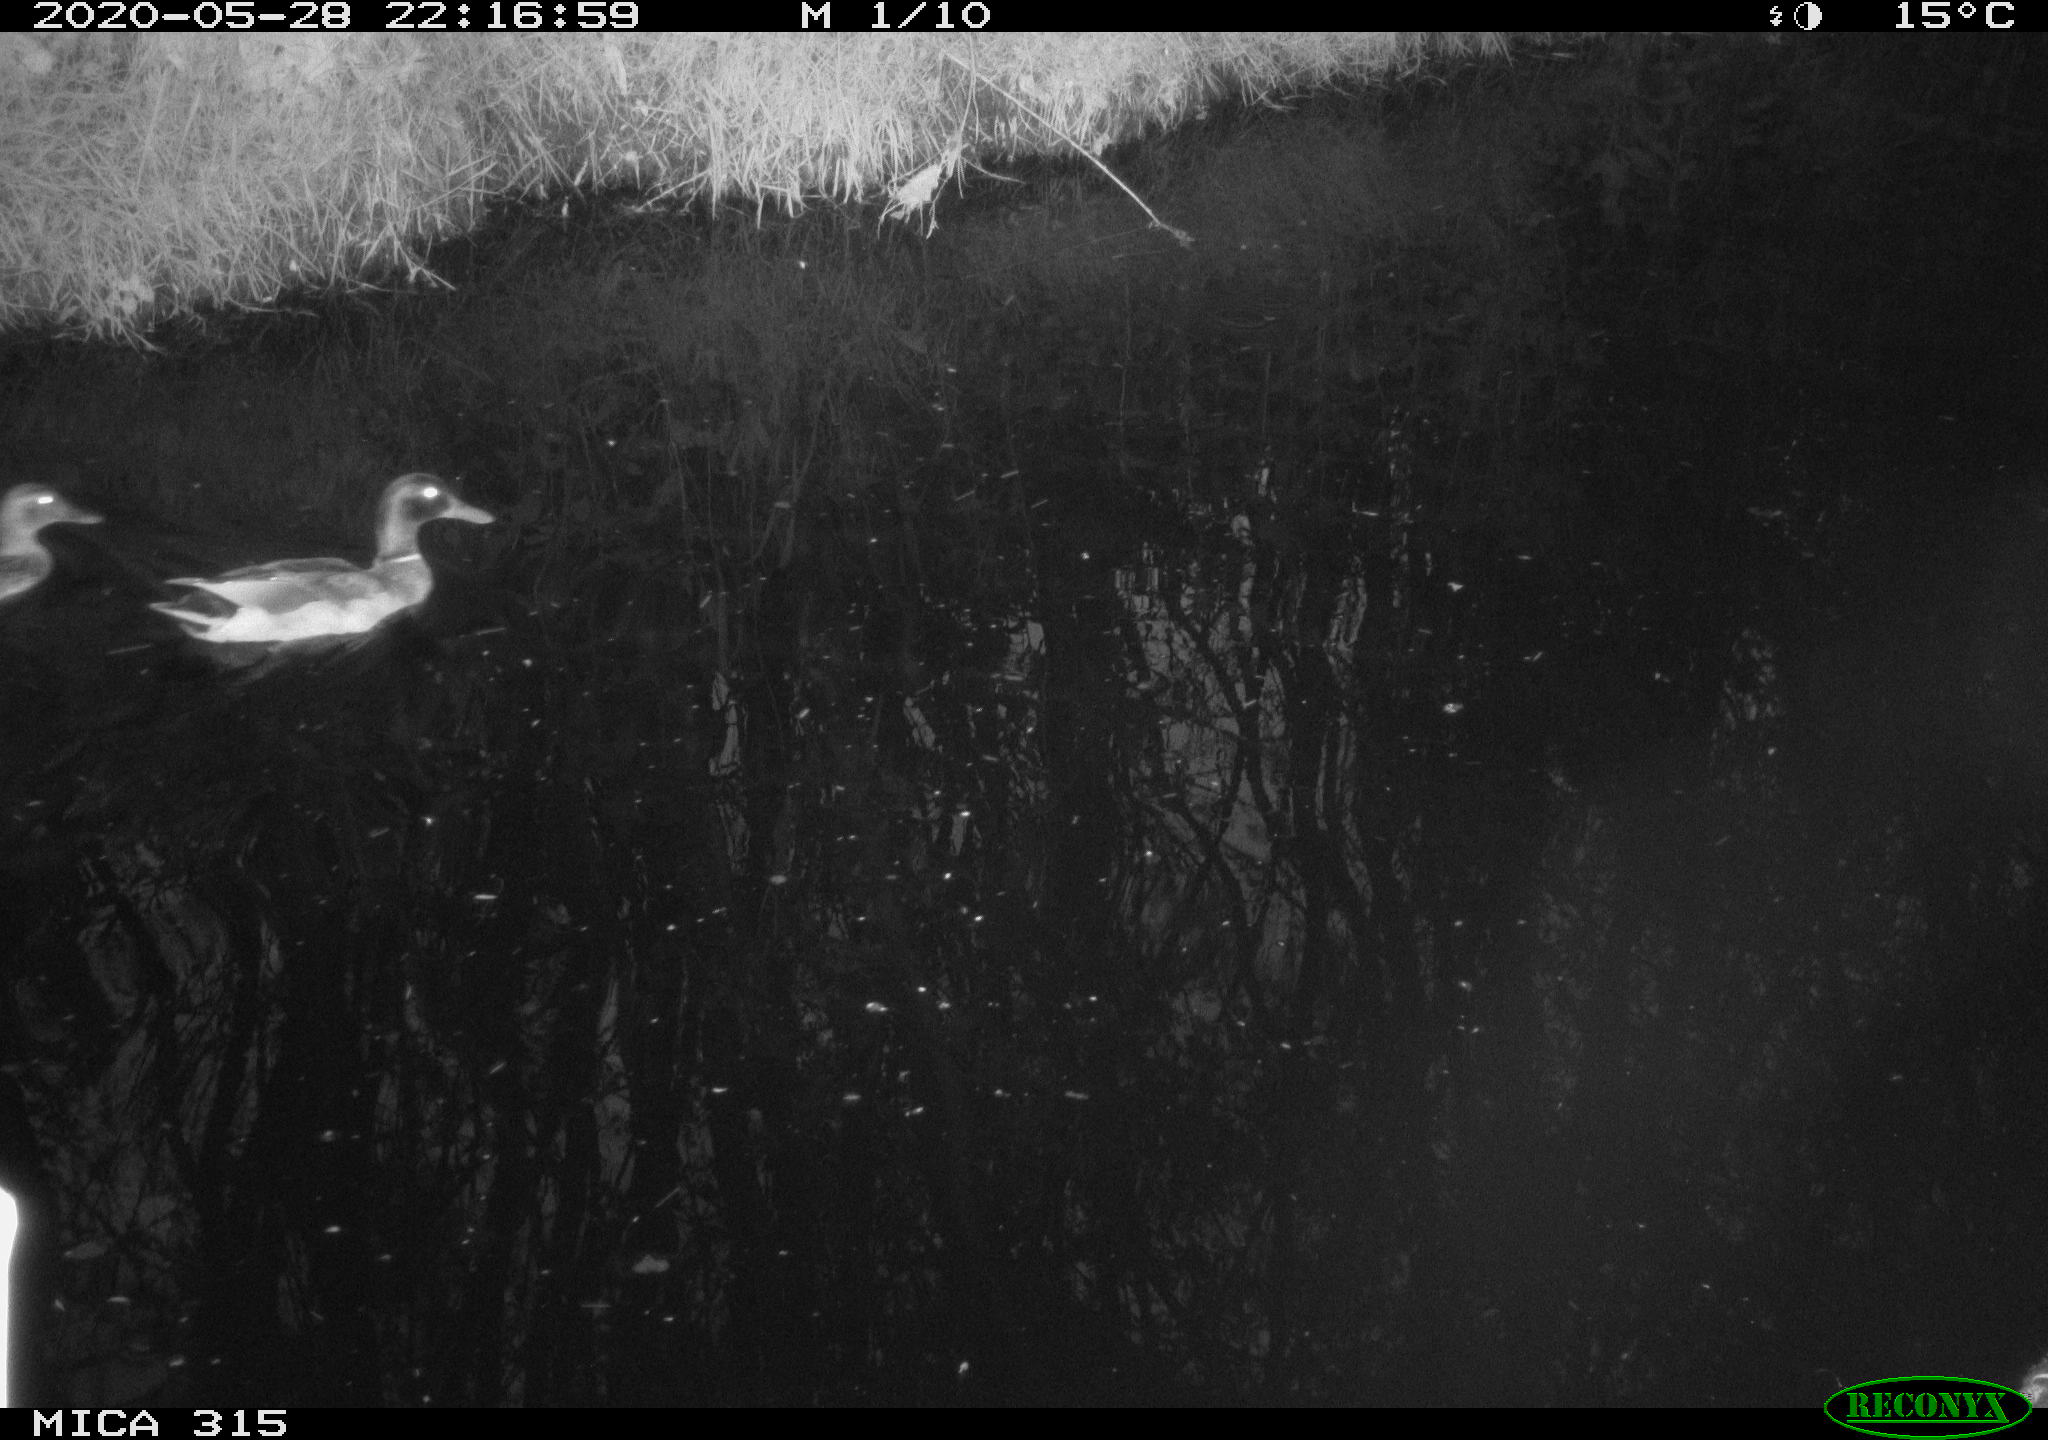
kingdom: Animalia
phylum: Chordata
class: Aves
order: Anseriformes
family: Anatidae
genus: Anas
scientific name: Anas platyrhynchos
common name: Mallard
